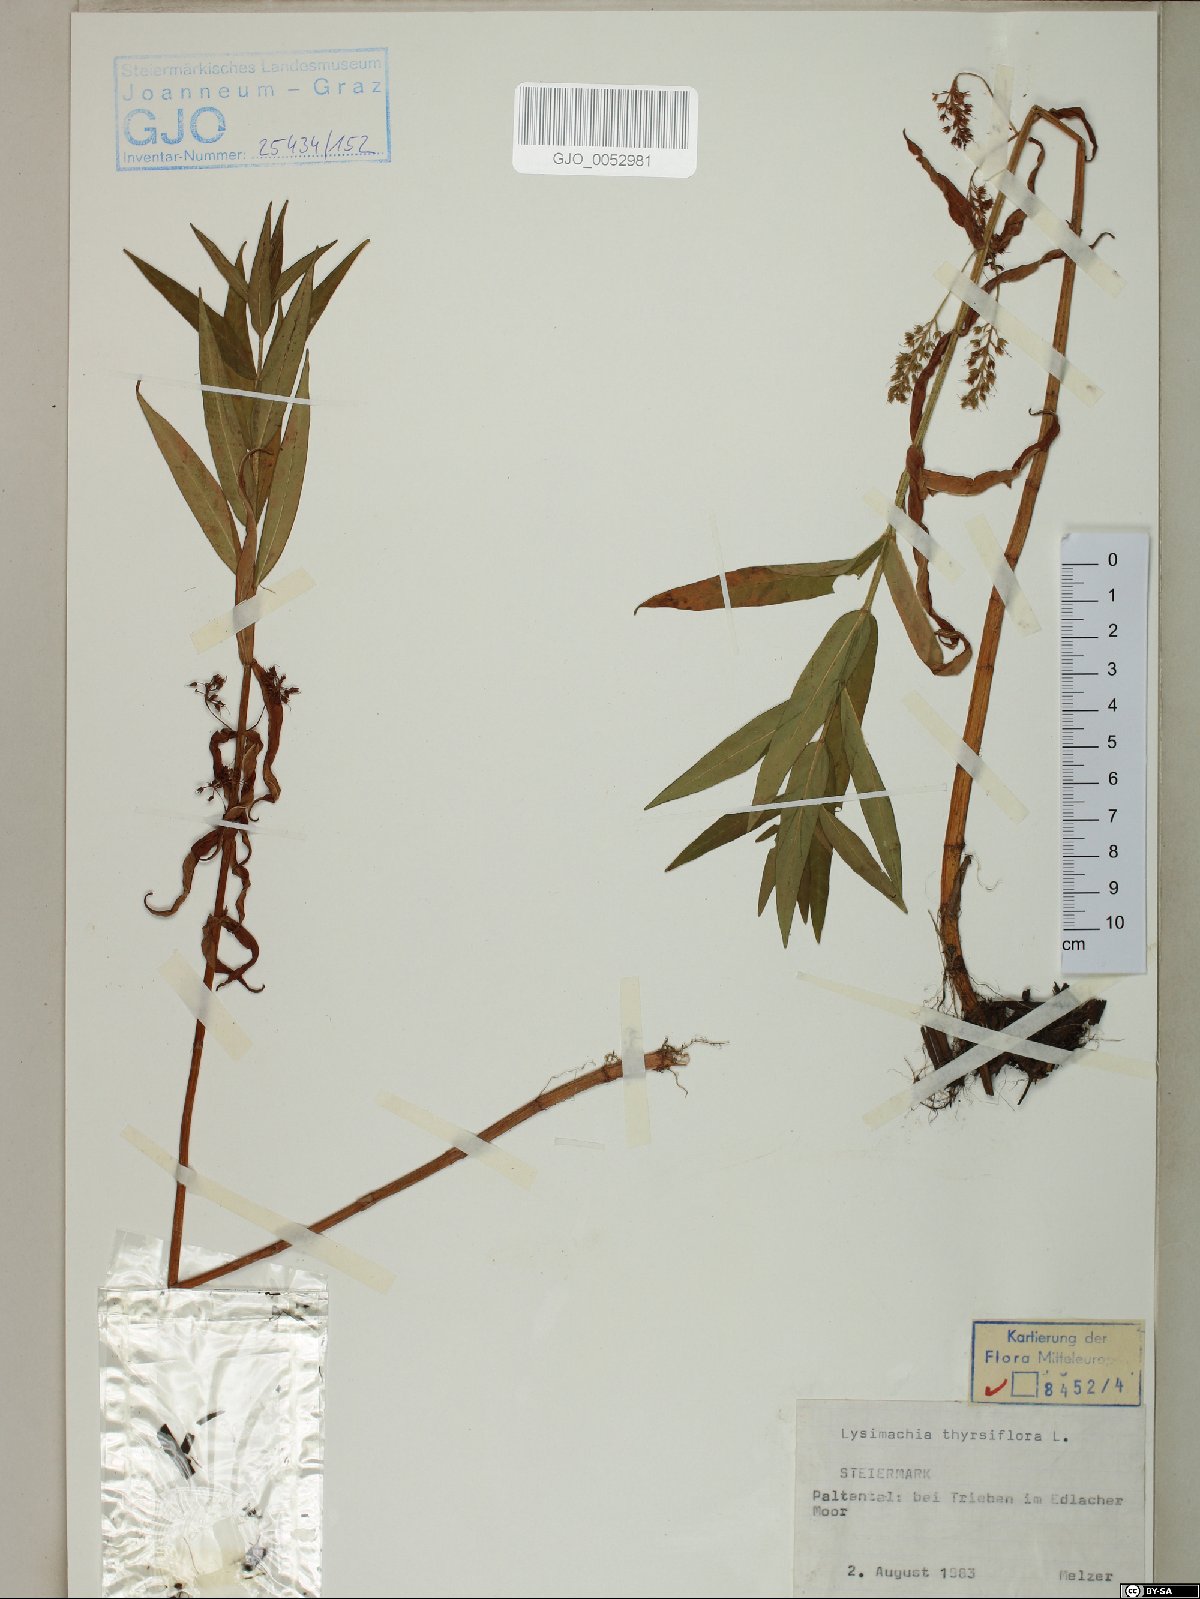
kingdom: Plantae
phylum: Tracheophyta
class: Magnoliopsida
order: Ericales
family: Primulaceae
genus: Lysimachia
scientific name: Lysimachia thyrsiflora
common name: Tufted loosestrife
